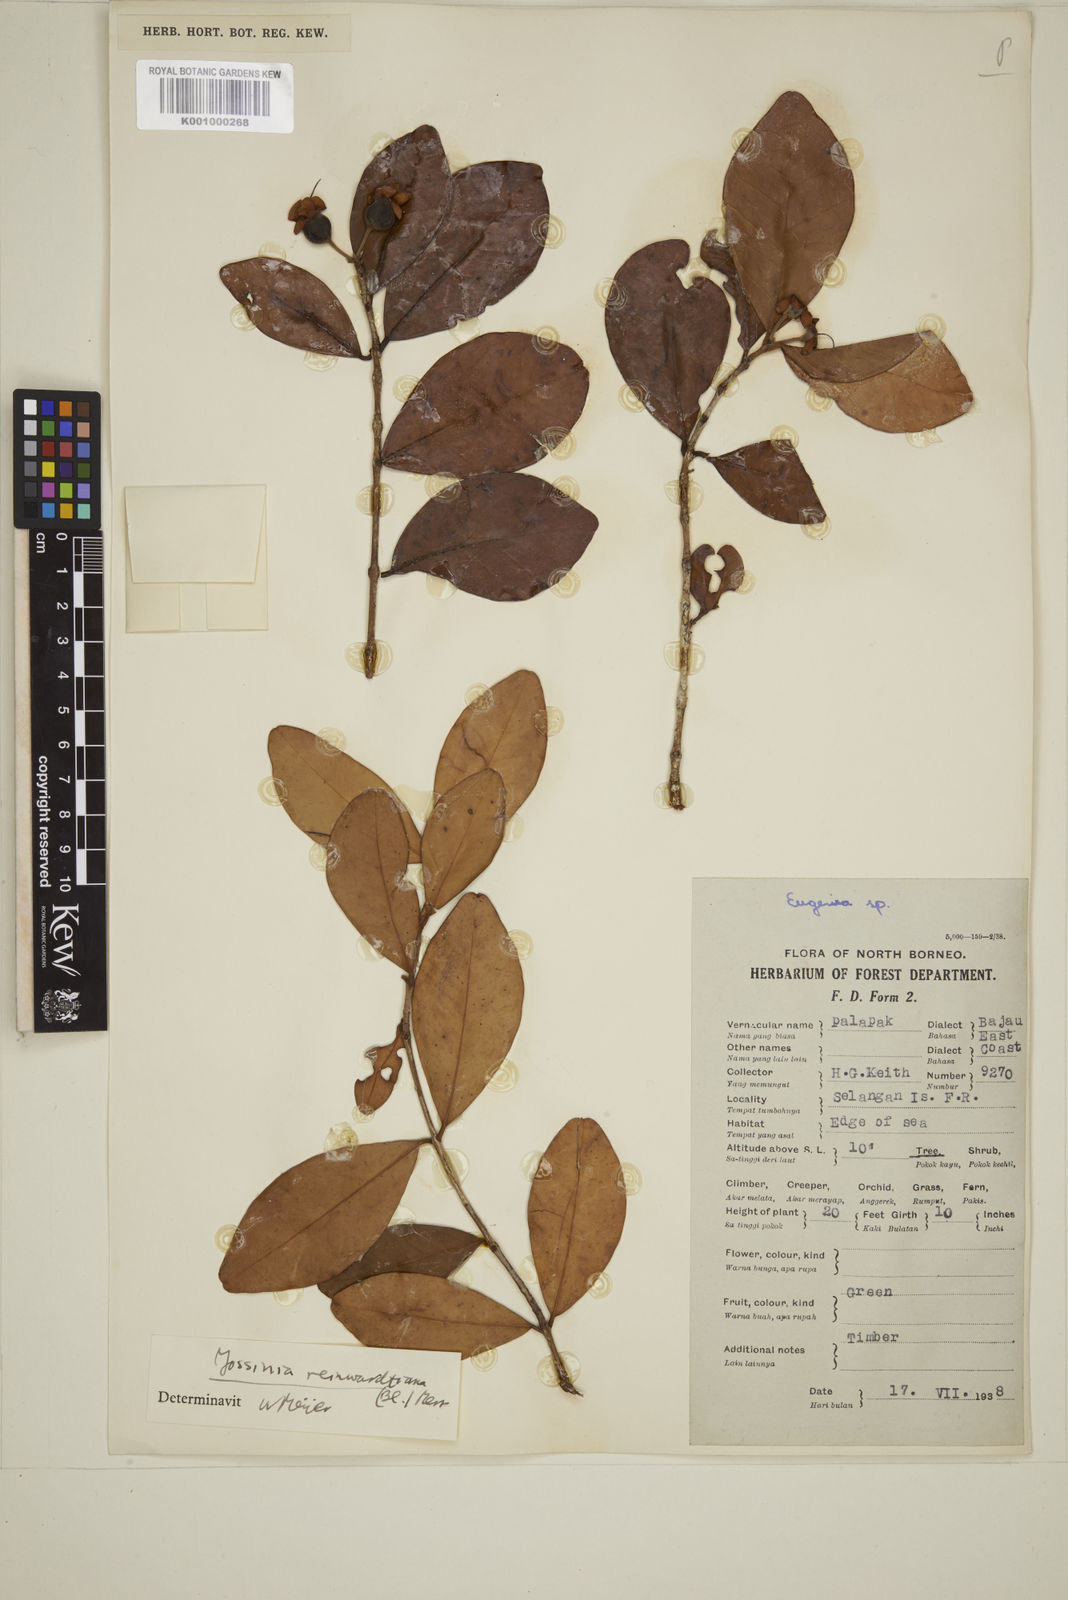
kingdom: Plantae
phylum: Tracheophyta
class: Magnoliopsida
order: Myrtales
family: Myrtaceae
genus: Eugenia
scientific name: Eugenia reinwardtiana
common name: Cedar bay-cherry
